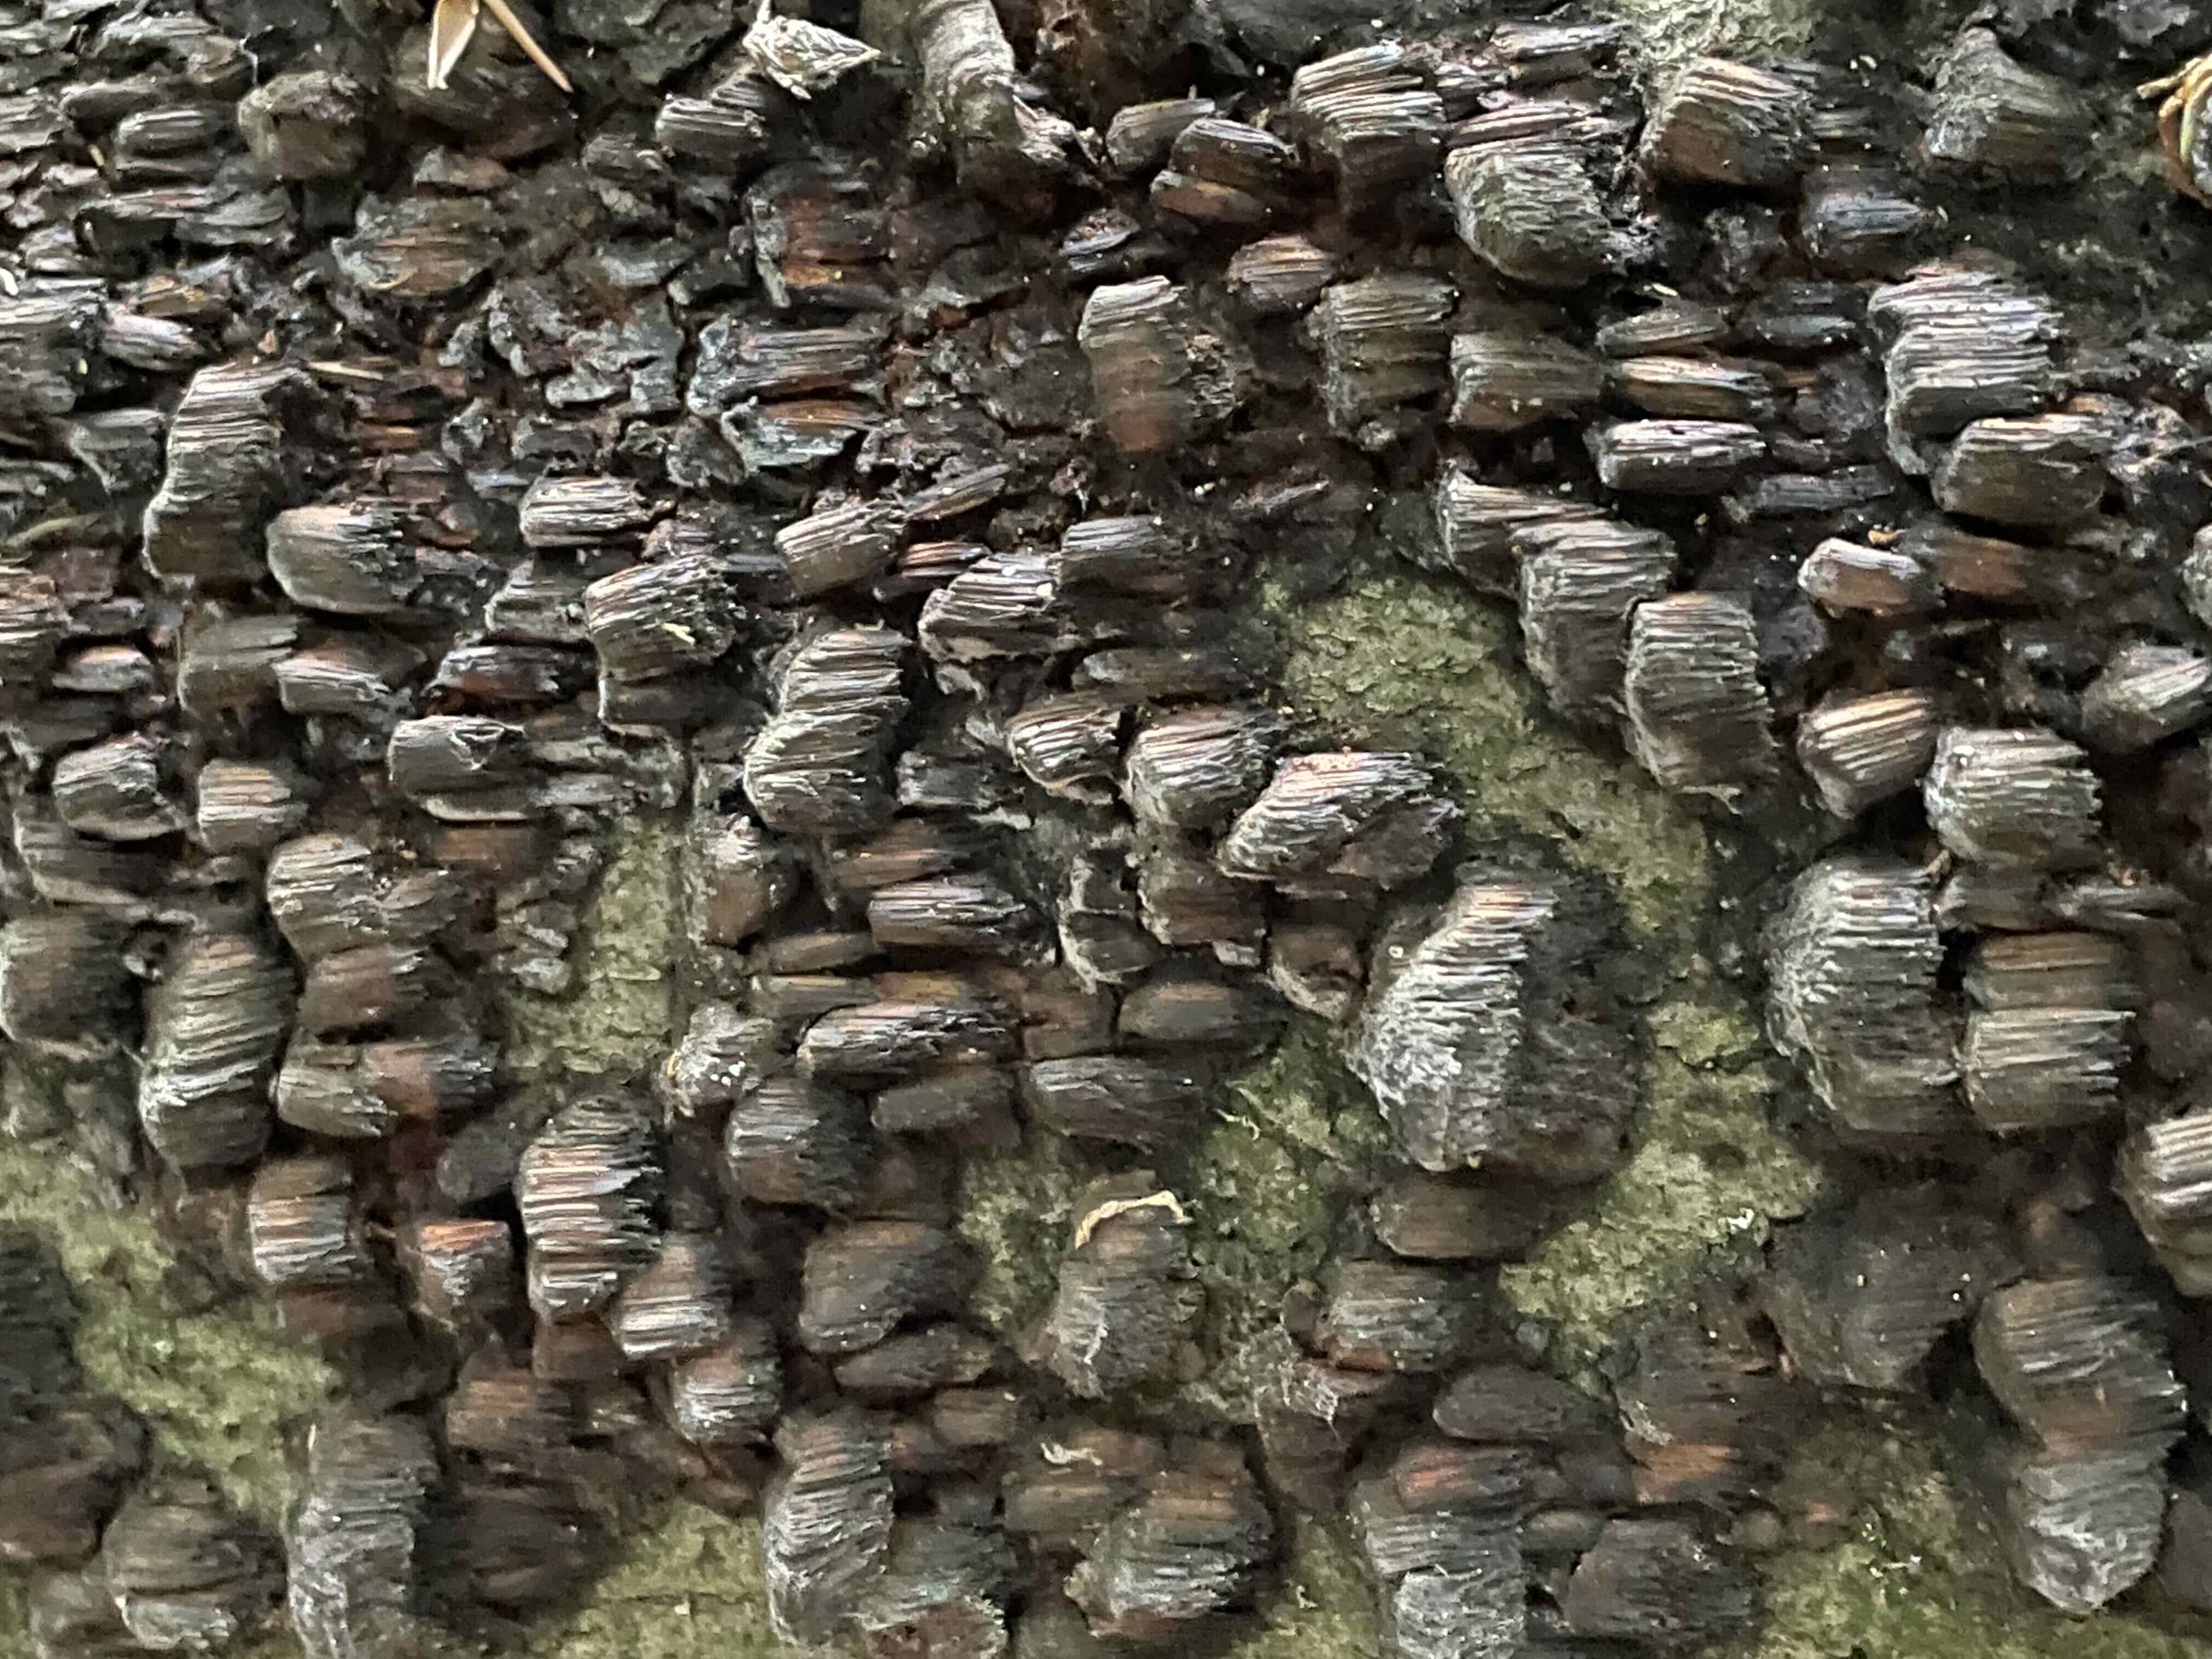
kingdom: Fungi
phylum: Basidiomycota
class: Agaricomycetes
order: Hymenochaetales
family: Hymenochaetaceae
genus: Mensularia
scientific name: Mensularia nodulosa
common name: bøge-spejlporesvamp
